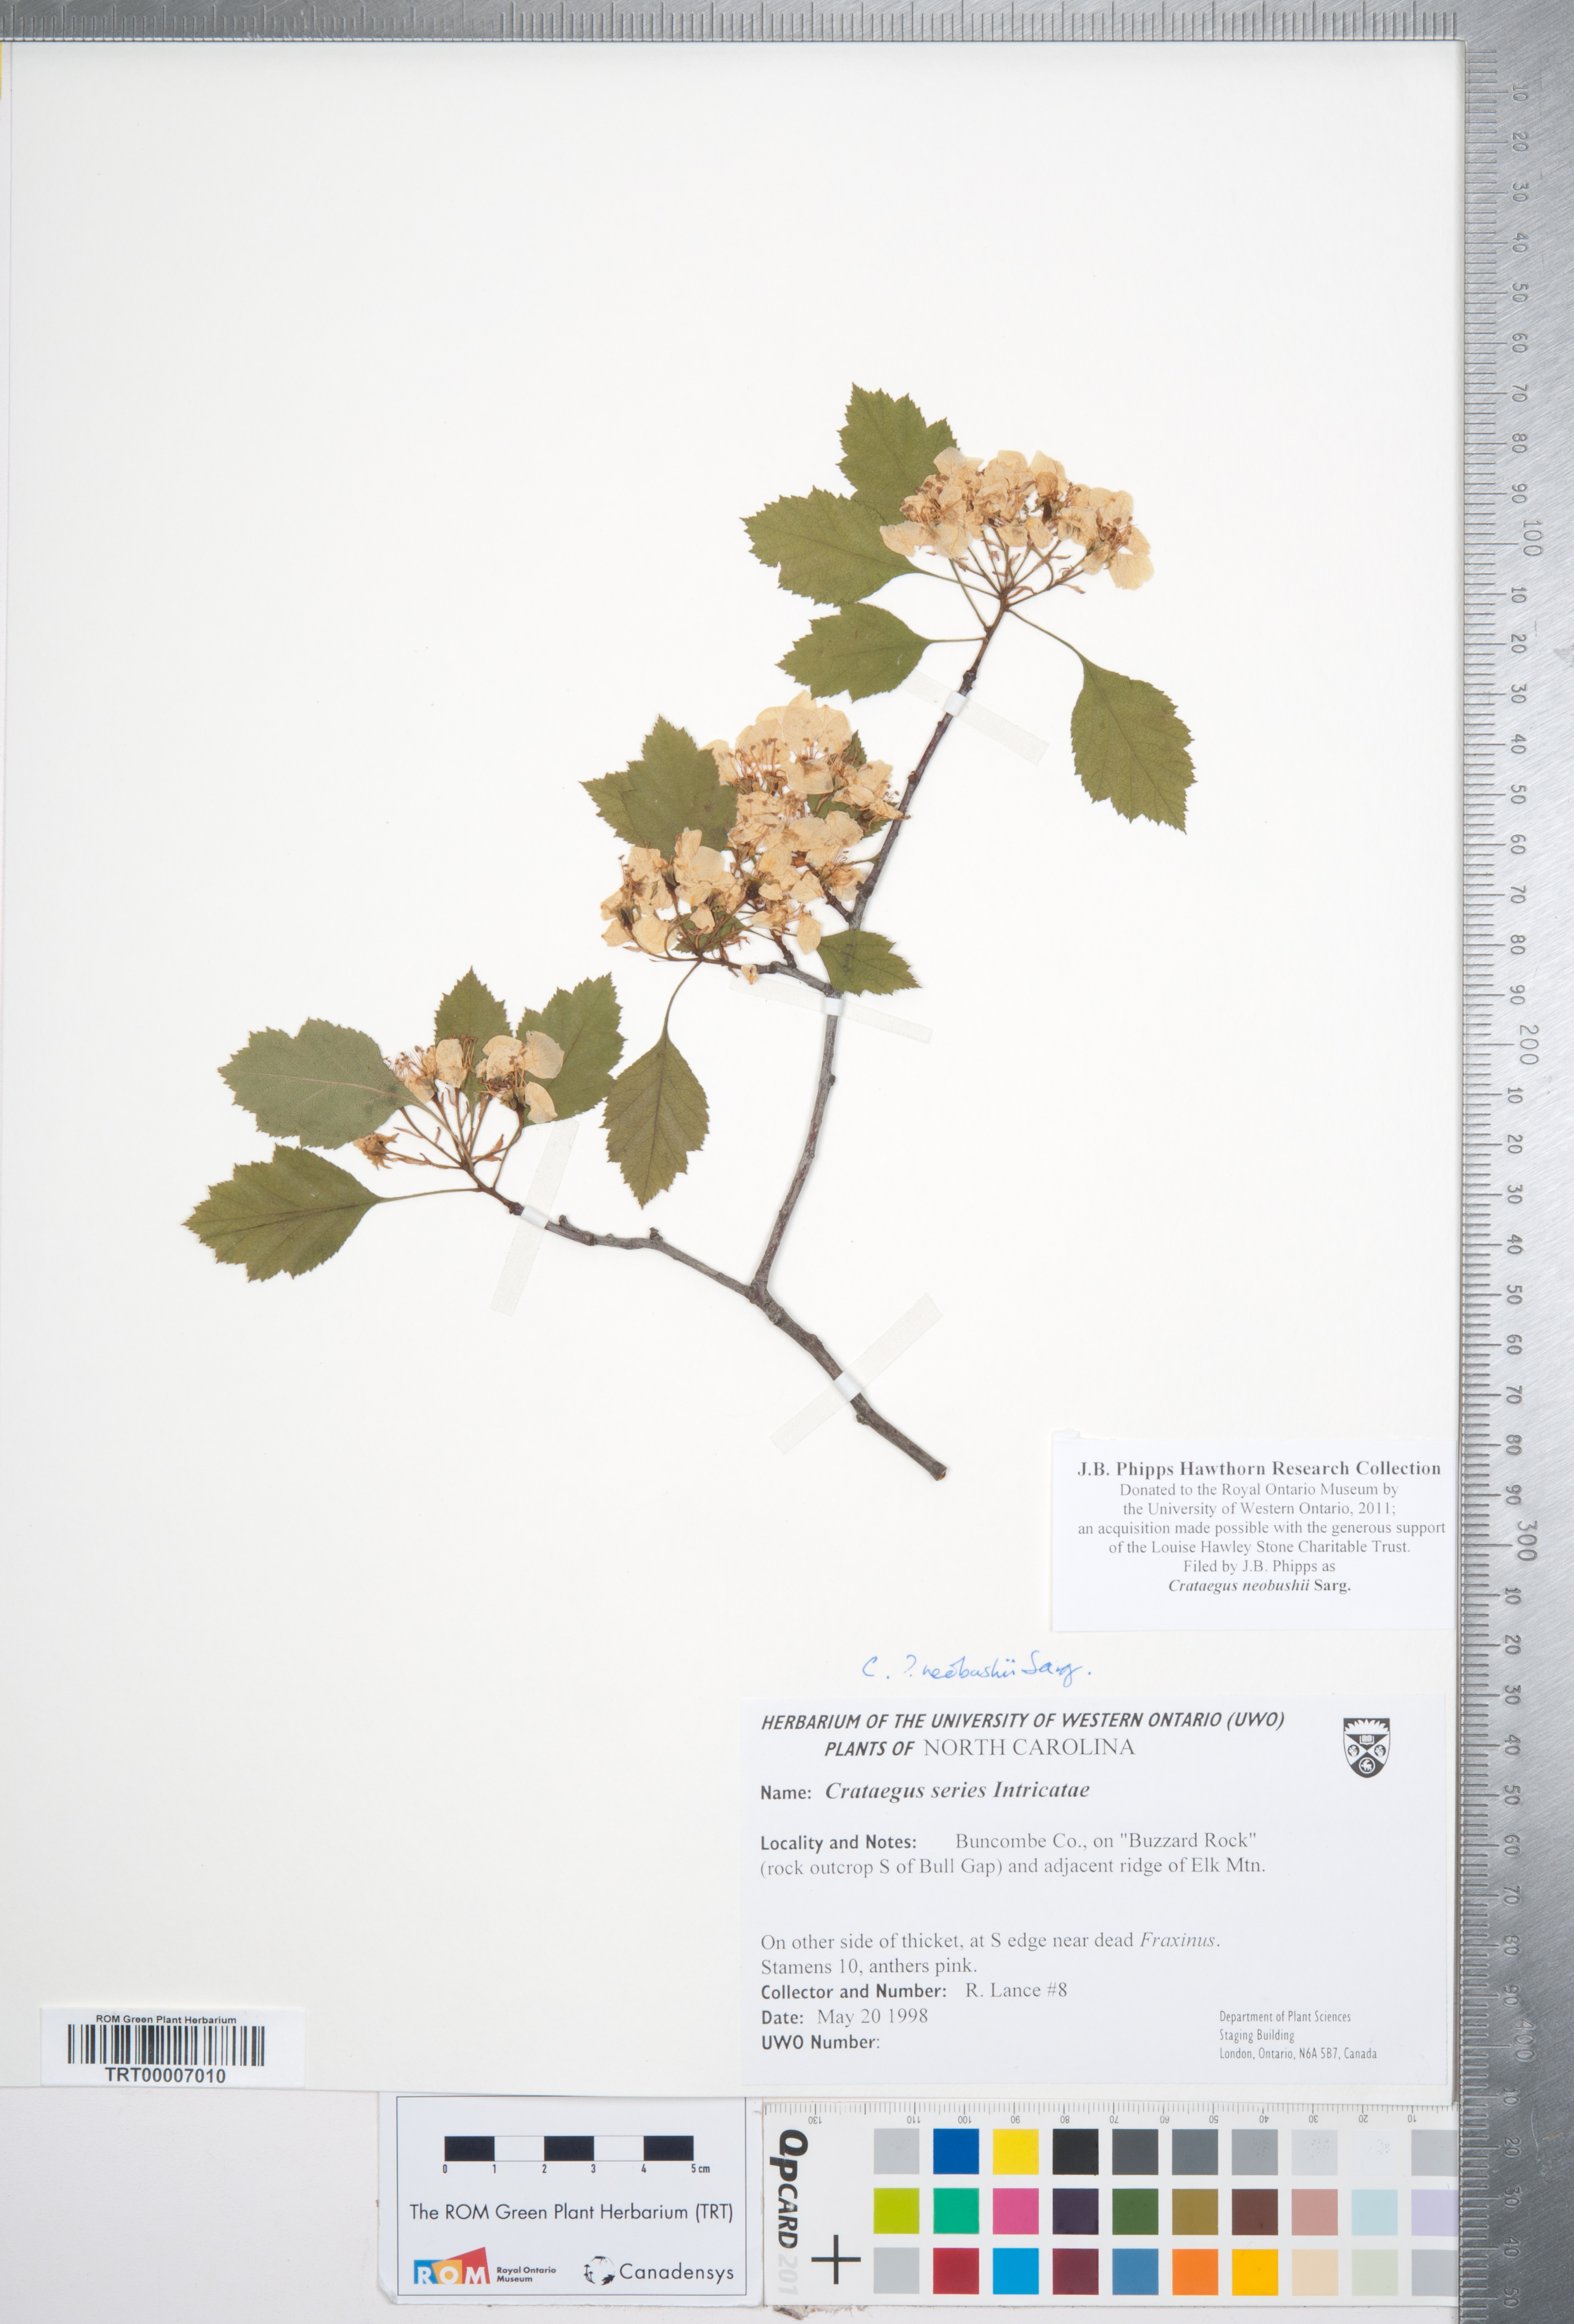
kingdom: Plantae
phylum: Tracheophyta
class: Magnoliopsida
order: Rosales
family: Rosaceae
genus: Crataegus
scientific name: Crataegus neobushii
